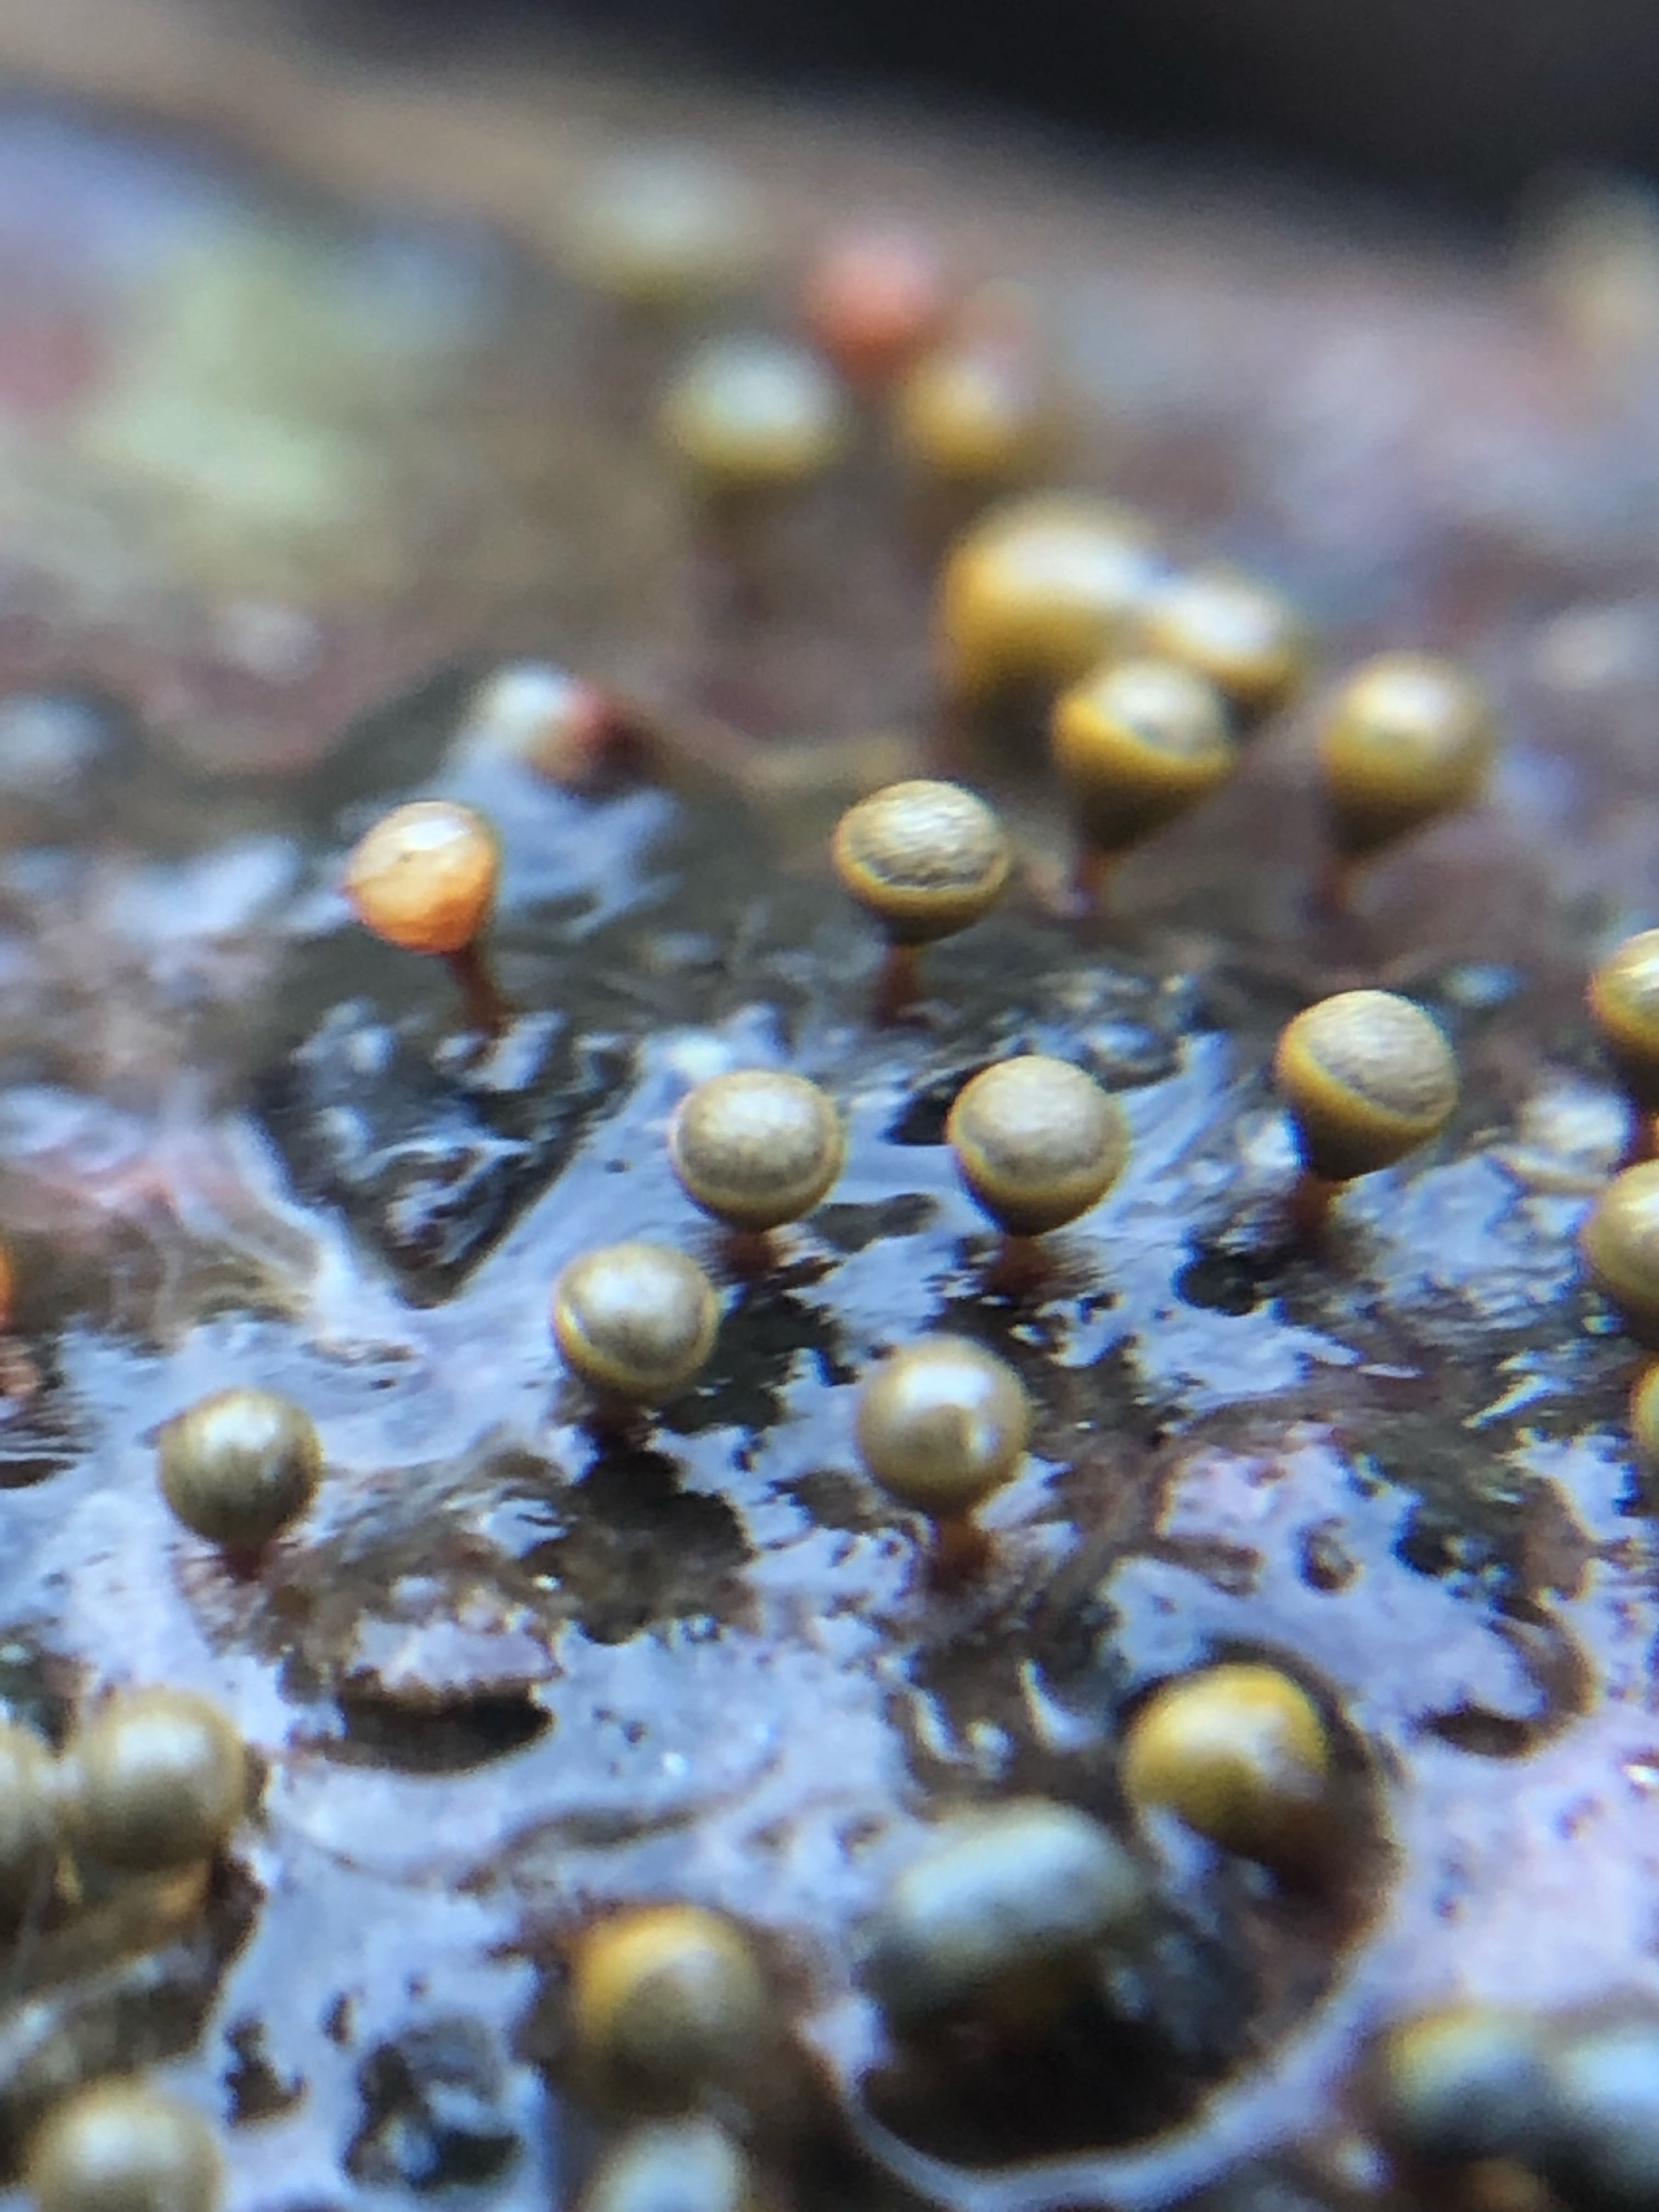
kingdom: Protozoa
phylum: Mycetozoa
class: Myxomycetes
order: Trichiales
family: Trichiaceae
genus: Trichia
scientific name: Trichia crateriformis
